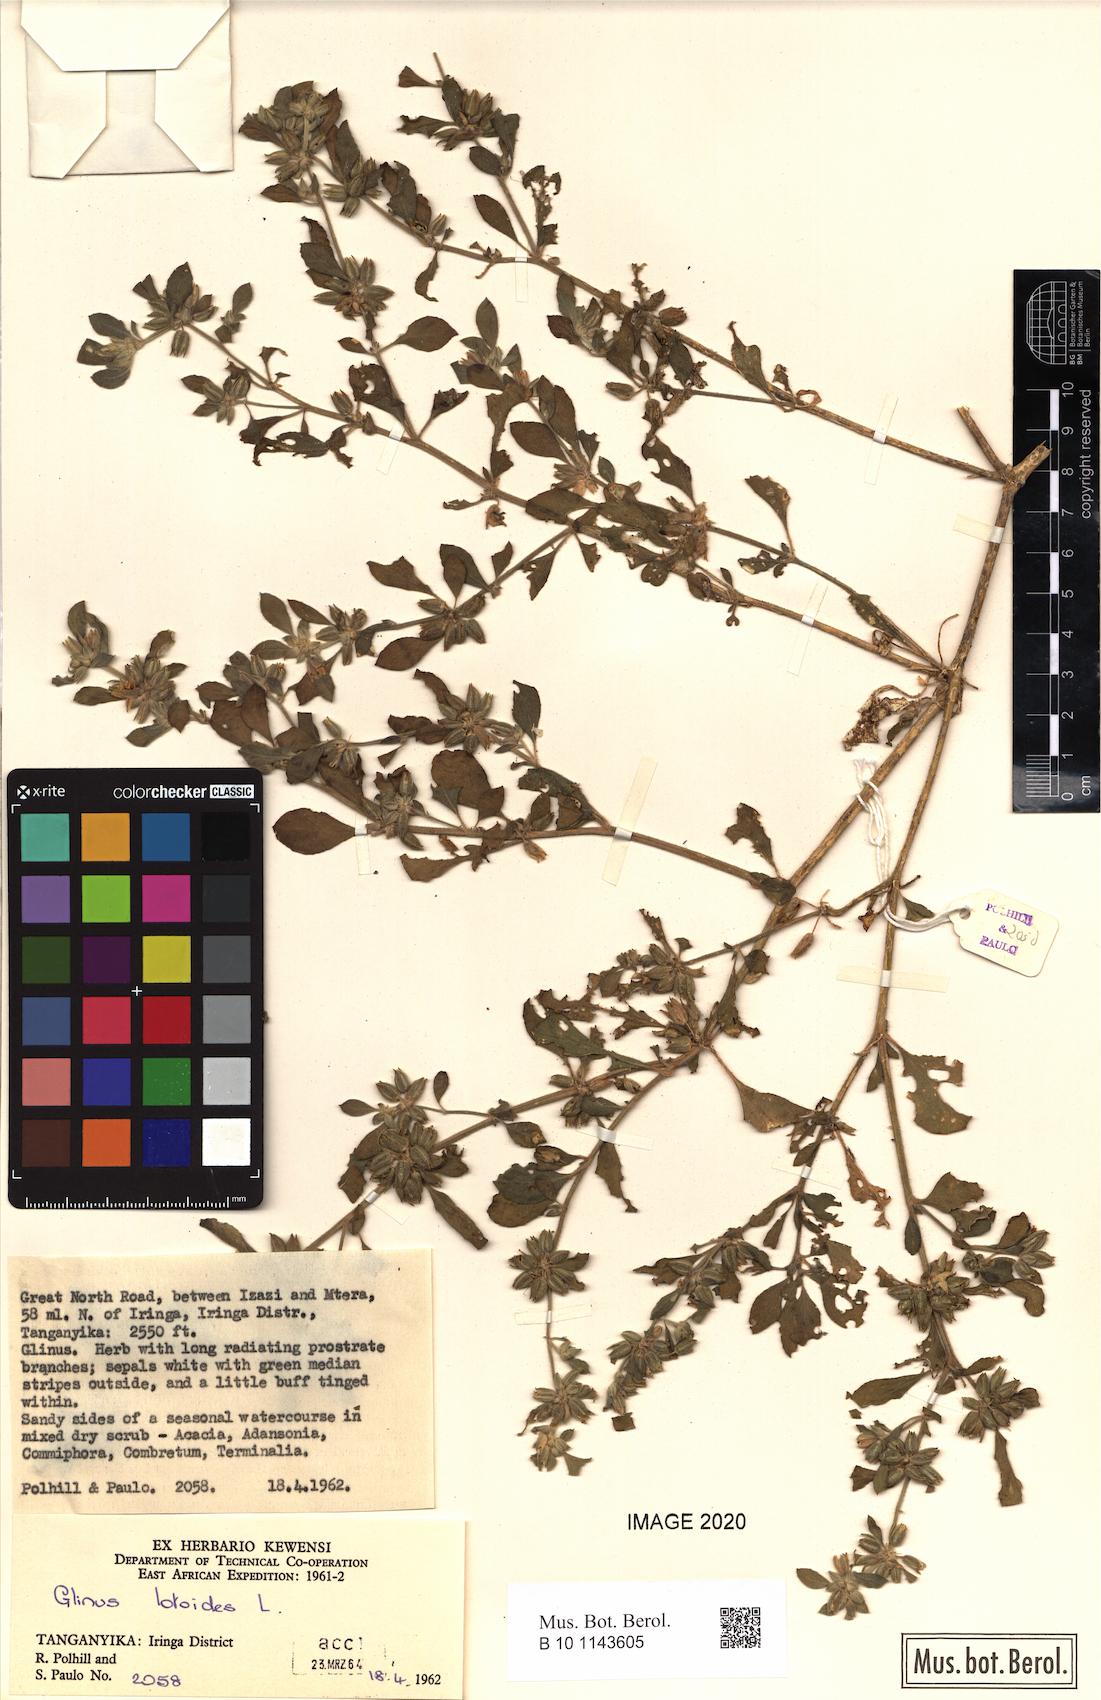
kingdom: Plantae
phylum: Tracheophyta
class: Magnoliopsida
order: Caryophyllales
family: Molluginaceae
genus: Glinus
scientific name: Glinus lotoides
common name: Lotus sweetjuice
